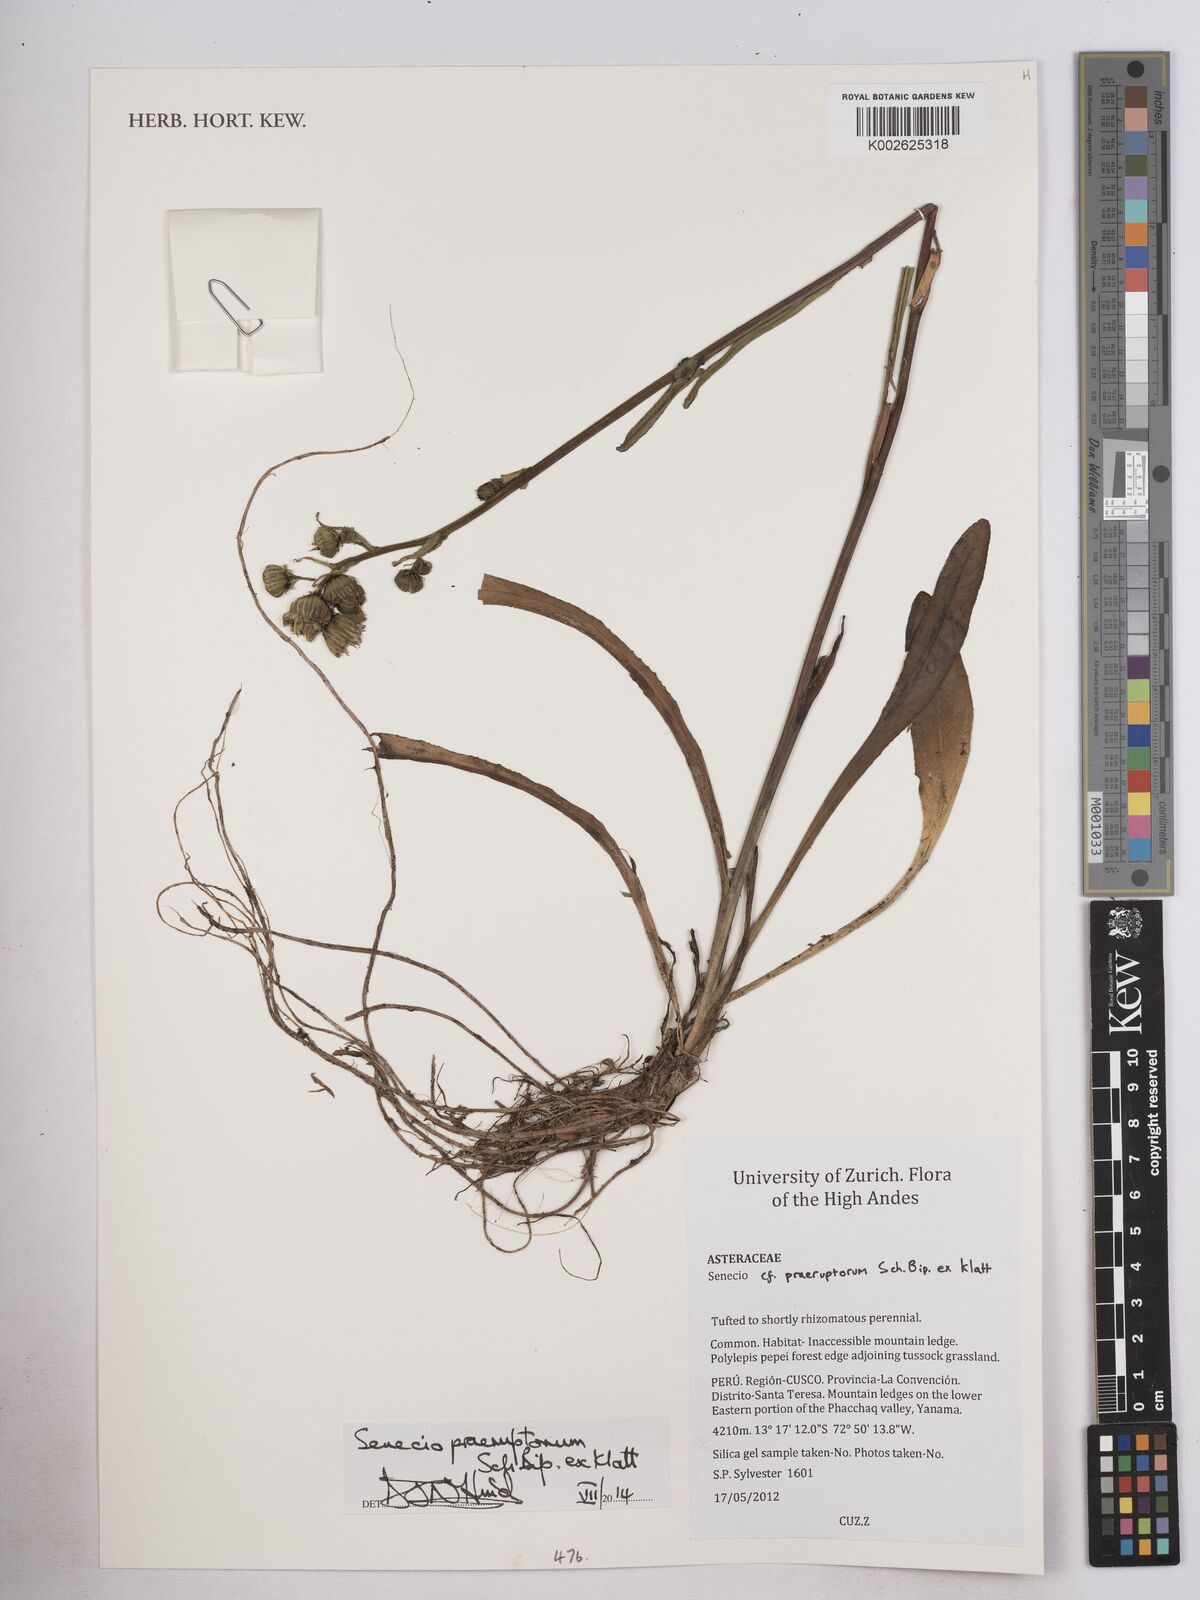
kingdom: Plantae
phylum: Tracheophyta
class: Magnoliopsida
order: Asterales
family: Asteraceae
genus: Senecio
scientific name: Senecio praeruptorum
